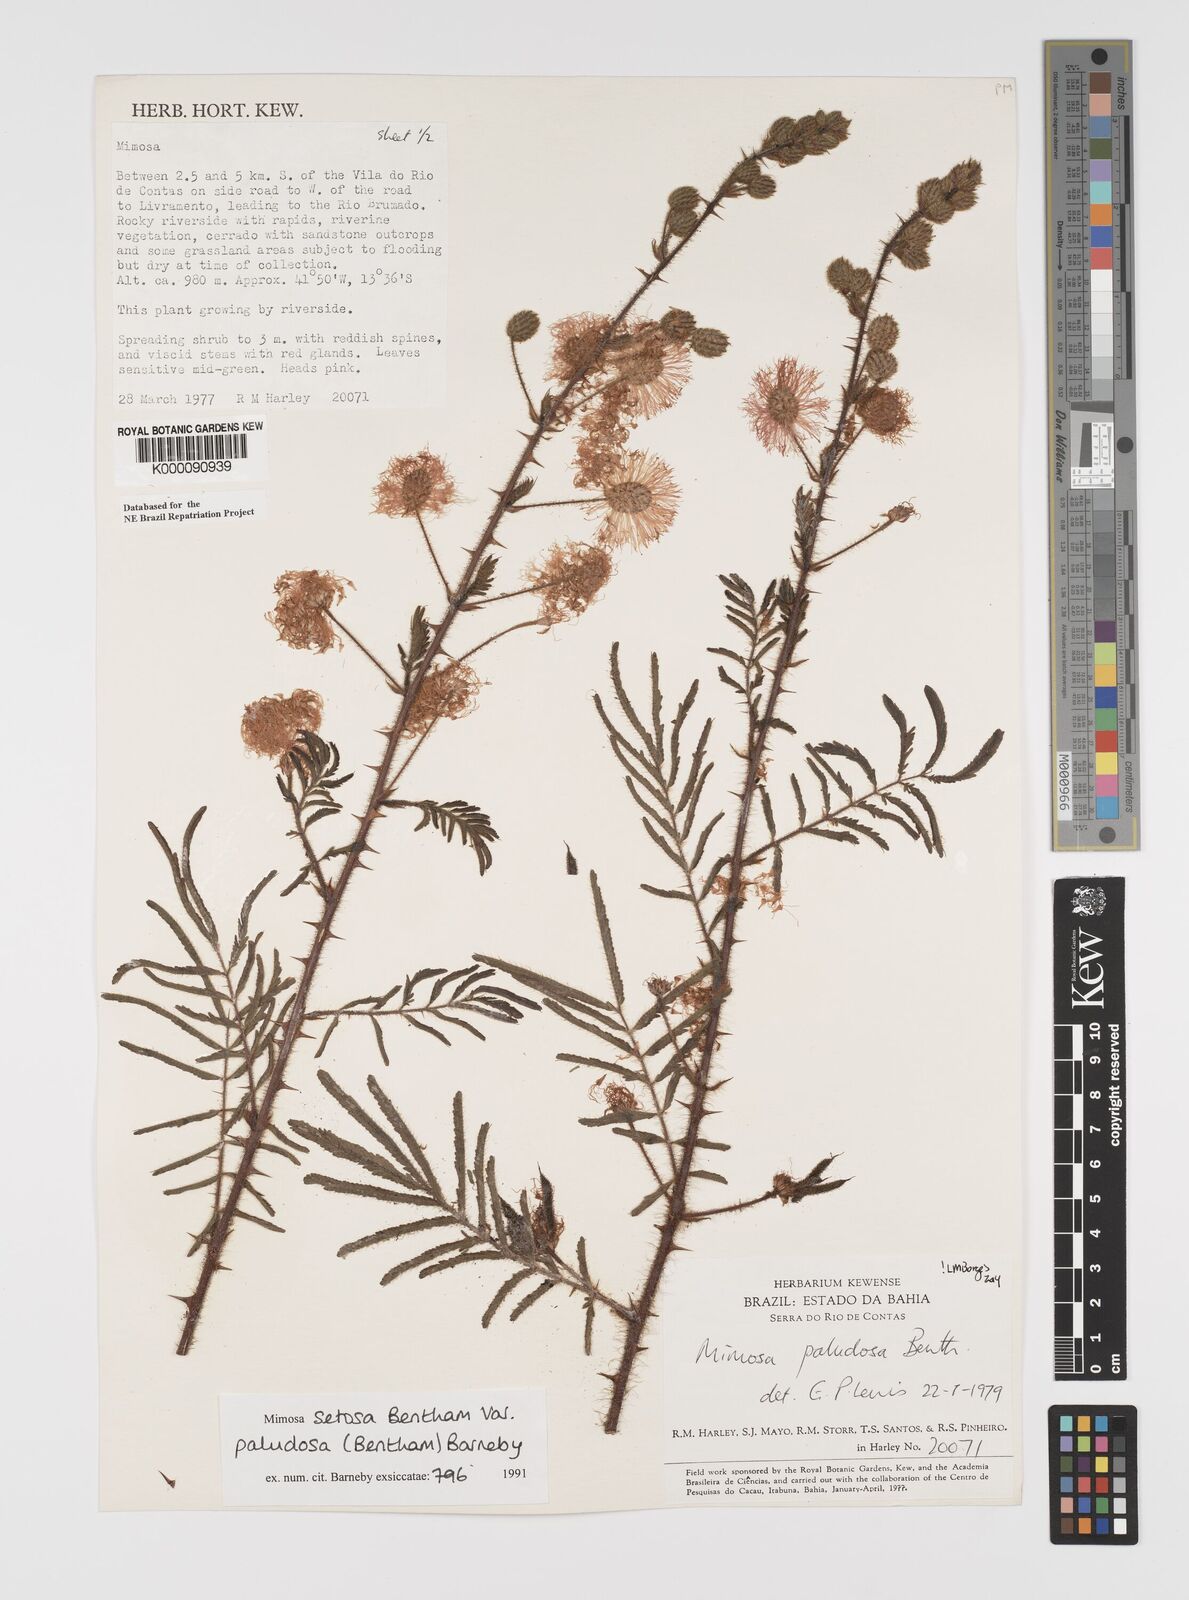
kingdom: Plantae
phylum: Tracheophyta
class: Magnoliopsida
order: Fabales
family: Fabaceae
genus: Mimosa
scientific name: Mimosa paludosa
